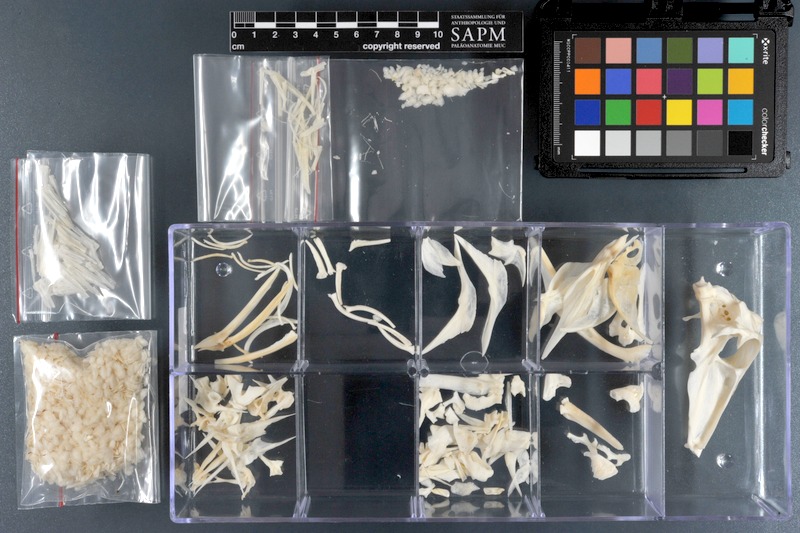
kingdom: Animalia
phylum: Chordata
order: Tetraodontiformes
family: Balistidae
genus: Sufflamen
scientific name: Sufflamen fraenatum
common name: Bridle triggerfish
